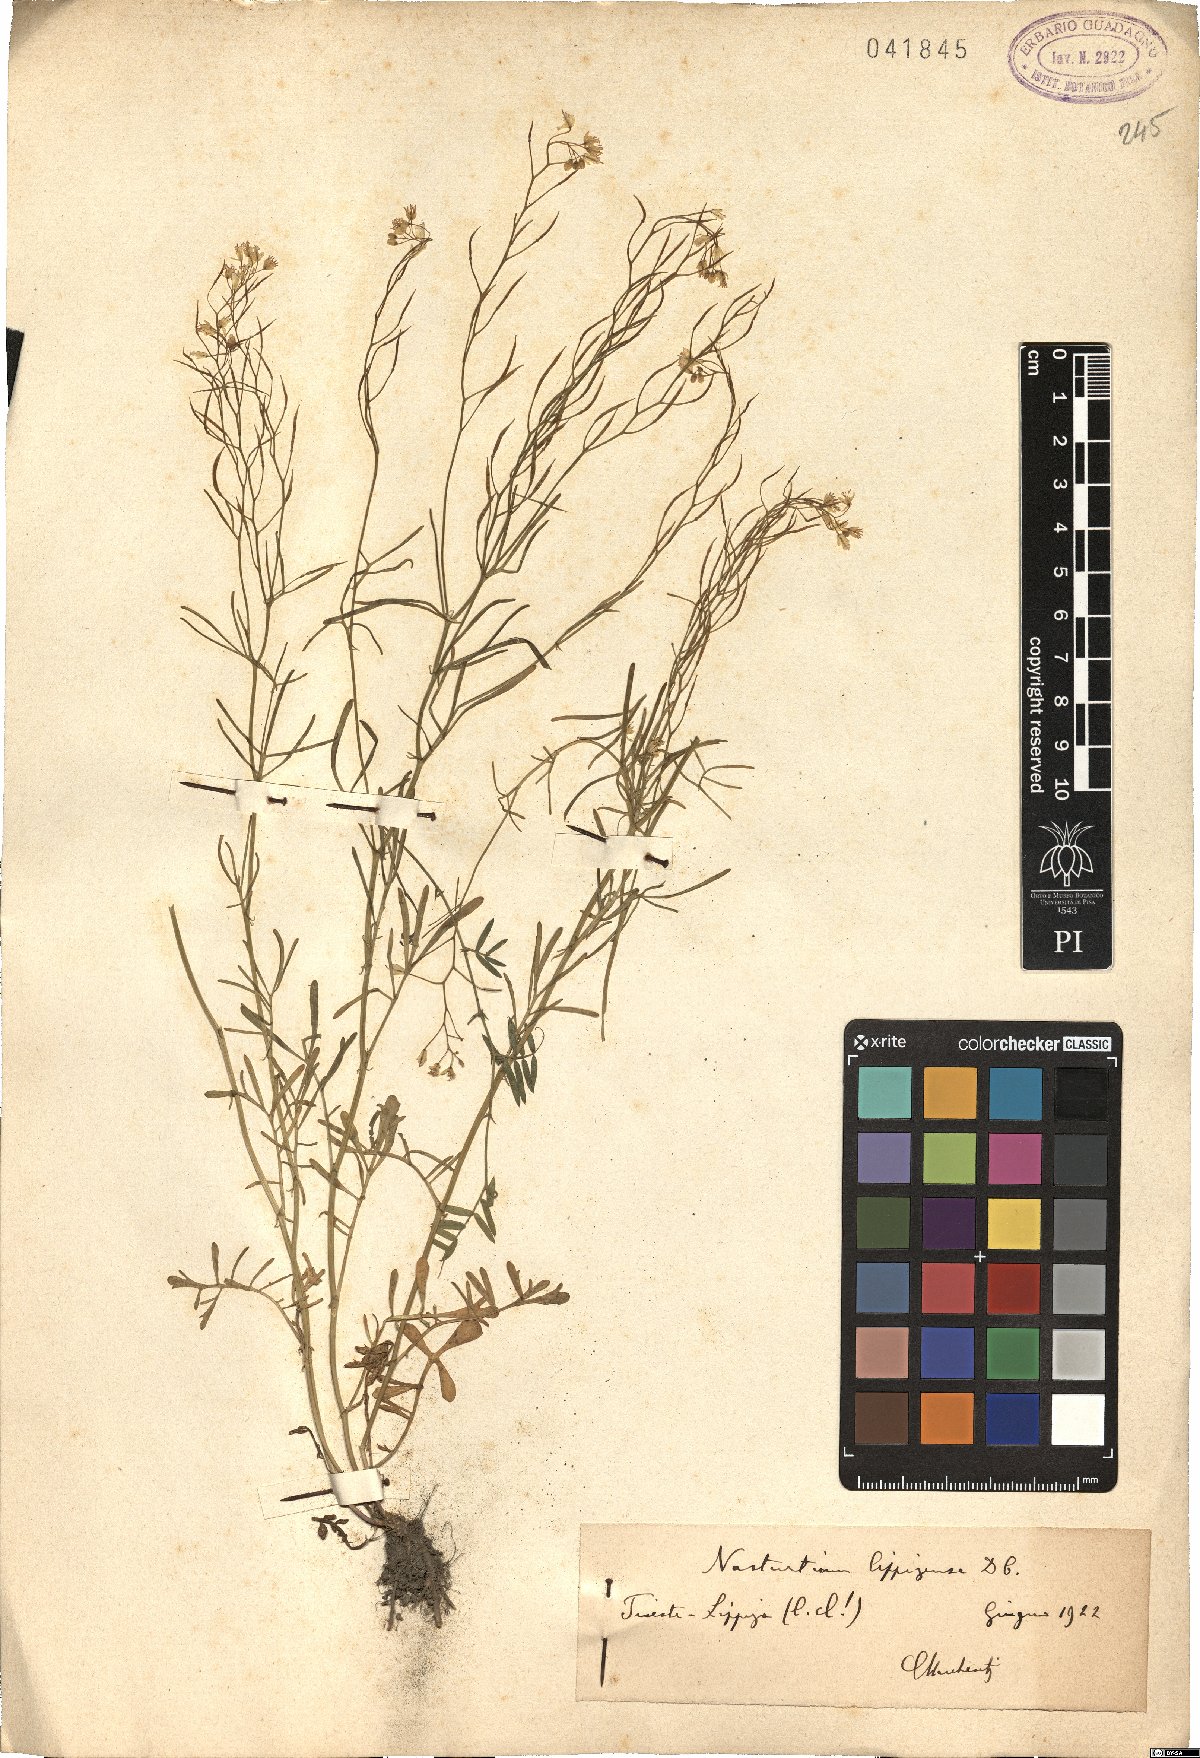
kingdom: Plantae
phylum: Tracheophyta
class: Magnoliopsida
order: Brassicales
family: Brassicaceae
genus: Rorippa
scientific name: Rorippa lippizensis
